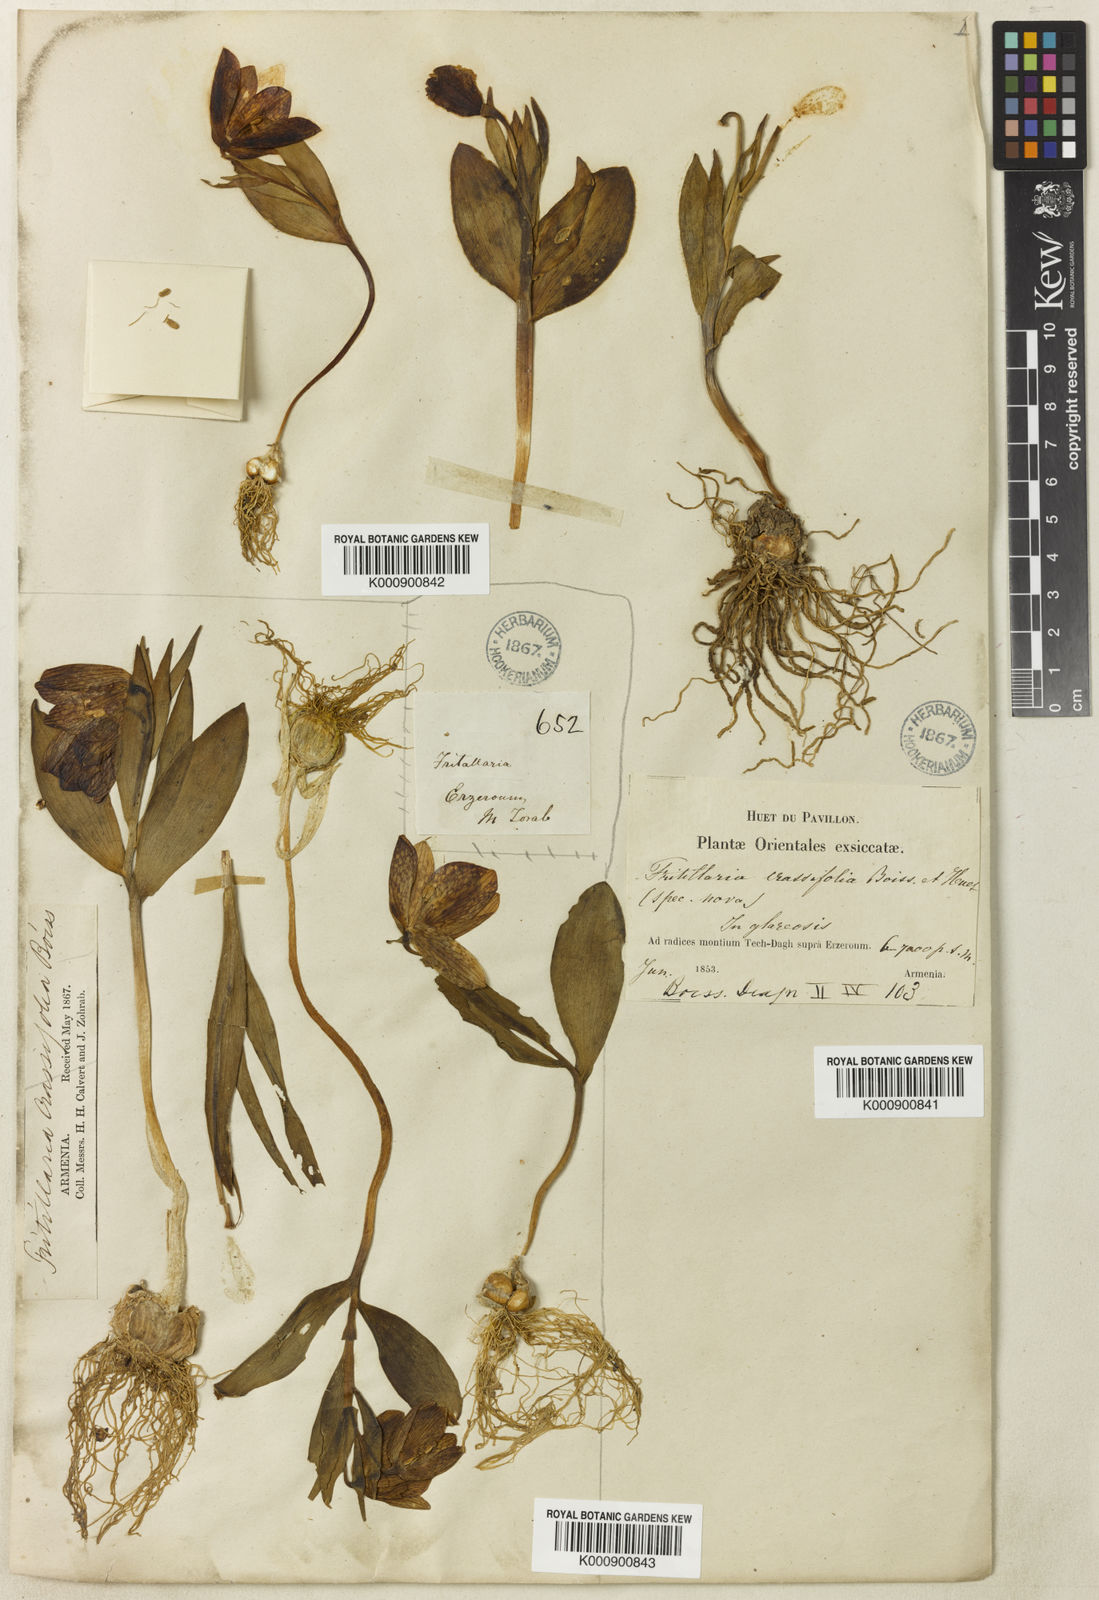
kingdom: Plantae
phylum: Tracheophyta
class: Liliopsida
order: Liliales
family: Liliaceae
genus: Fritillaria
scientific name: Fritillaria crassifolia
